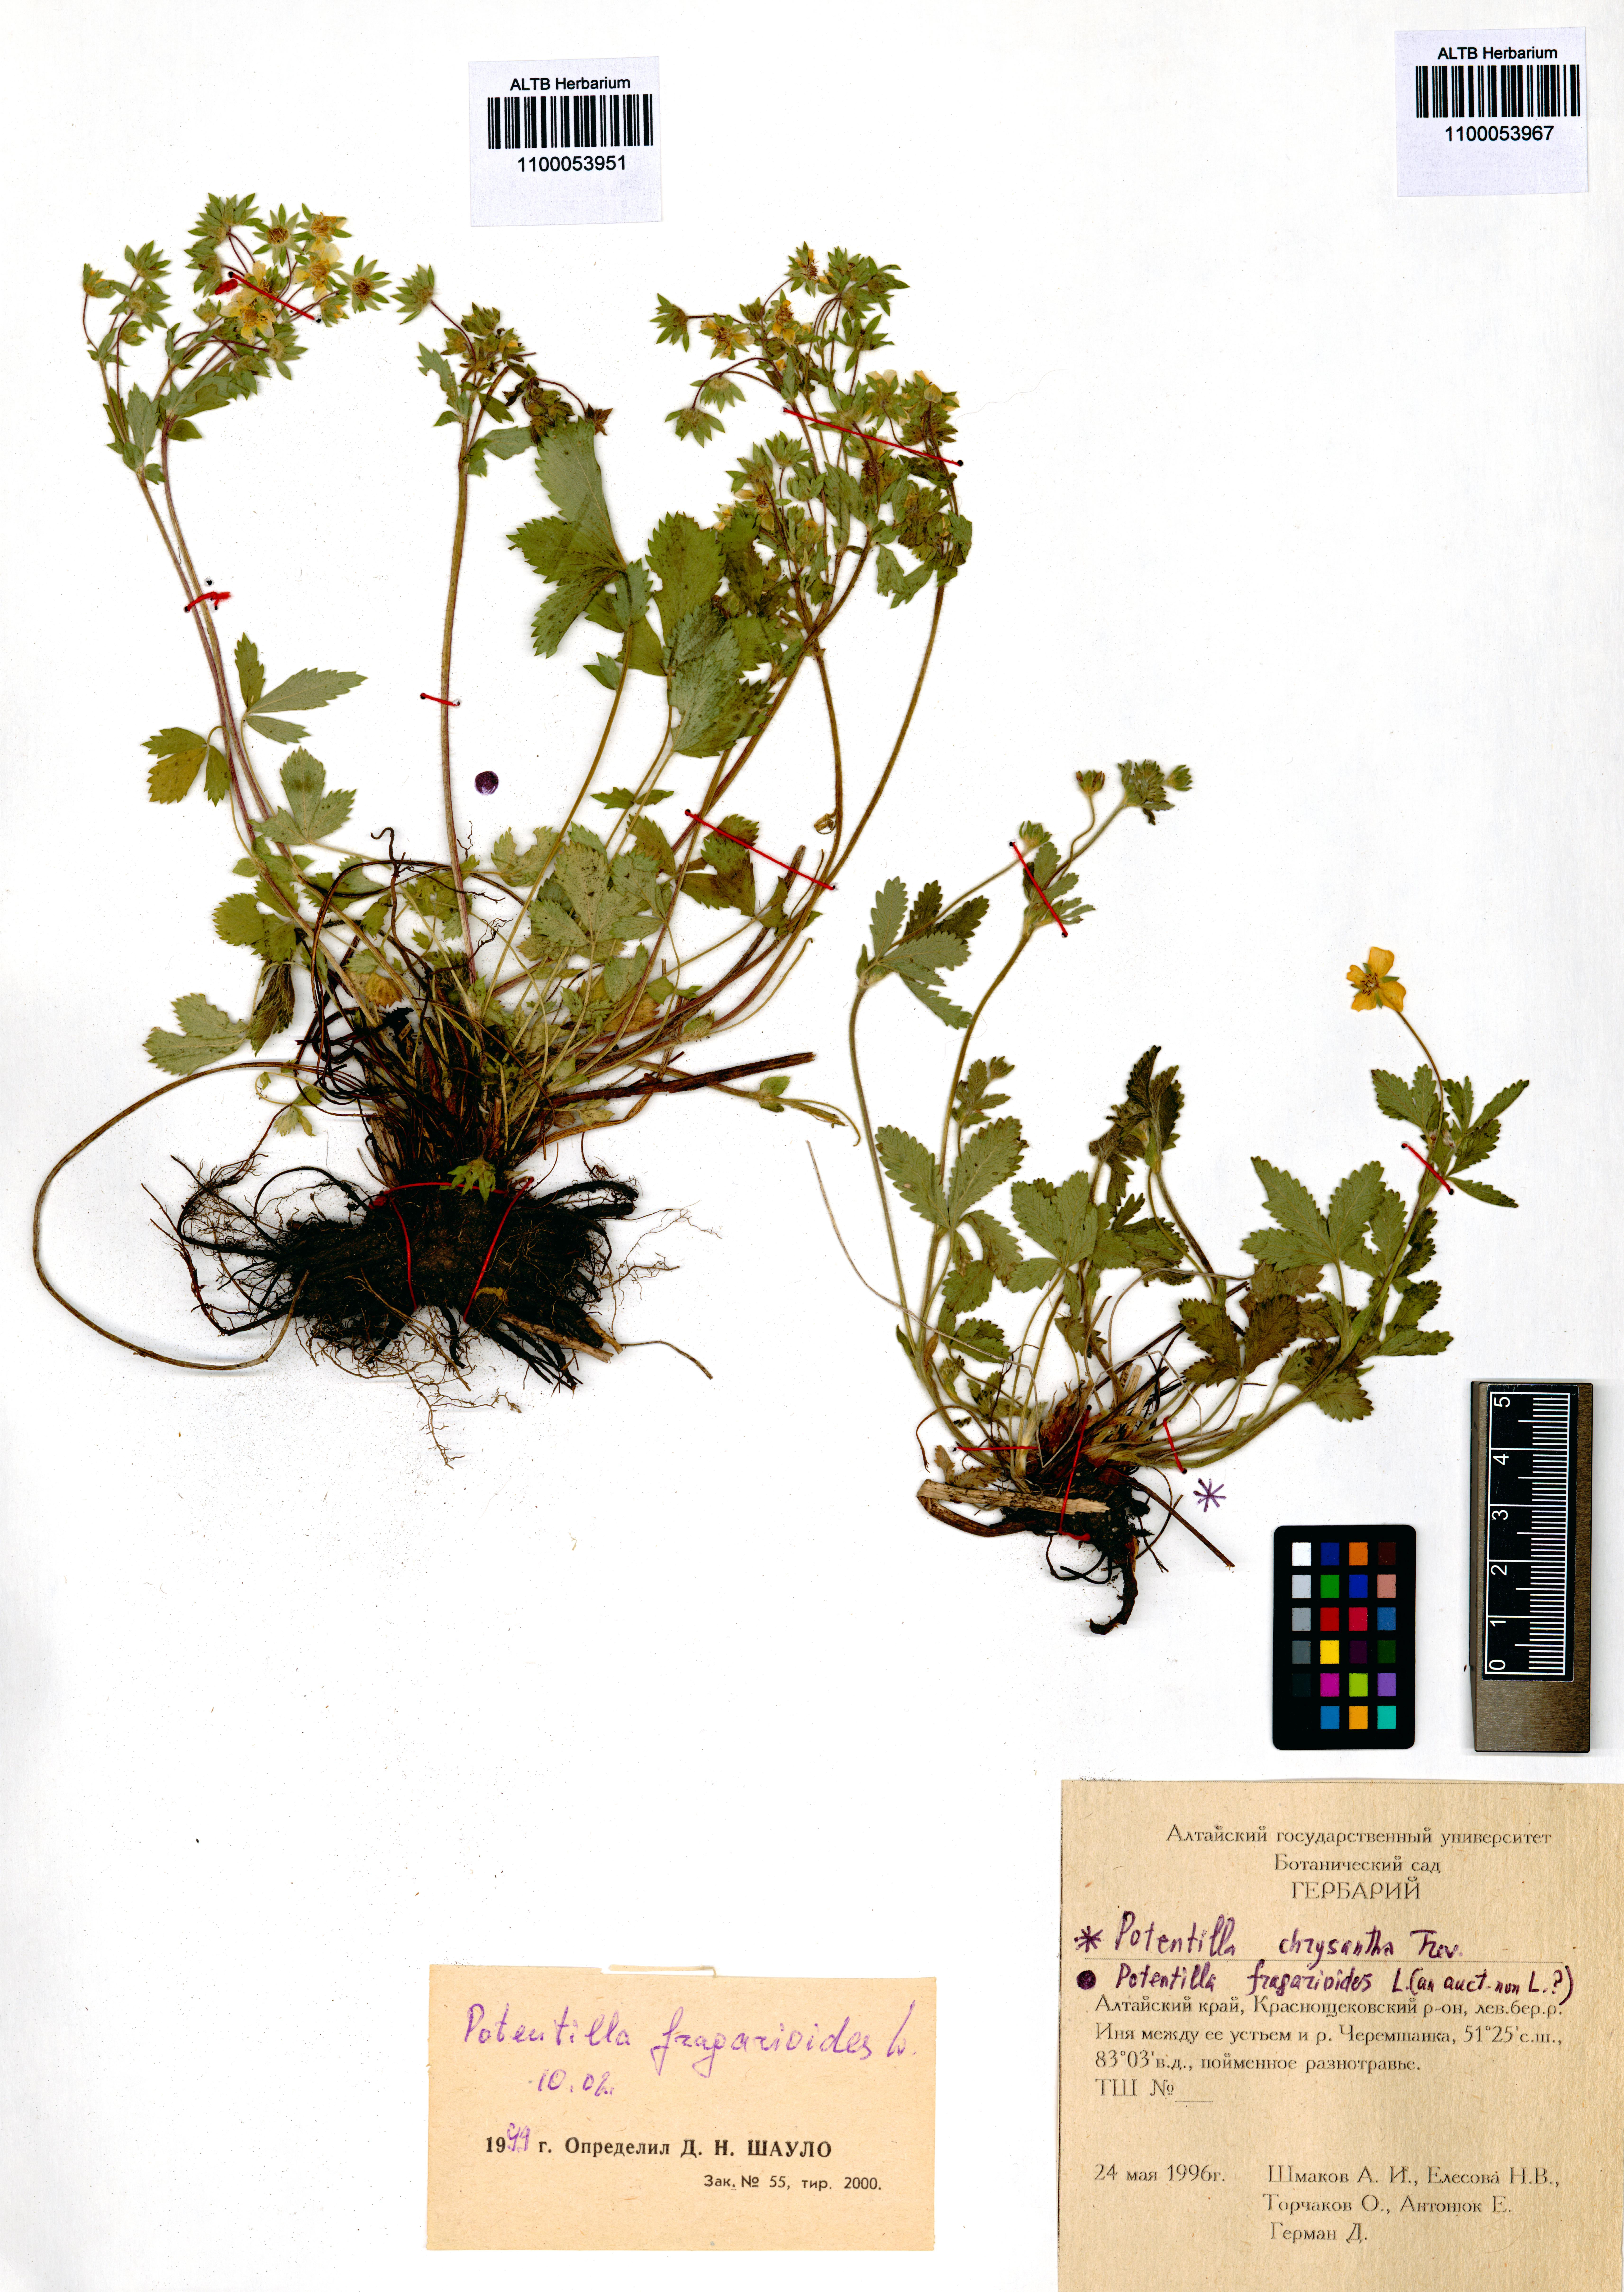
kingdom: Plantae
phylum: Tracheophyta
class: Magnoliopsida
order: Rosales
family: Rosaceae
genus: Potentilla
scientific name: Potentilla fragarioides
